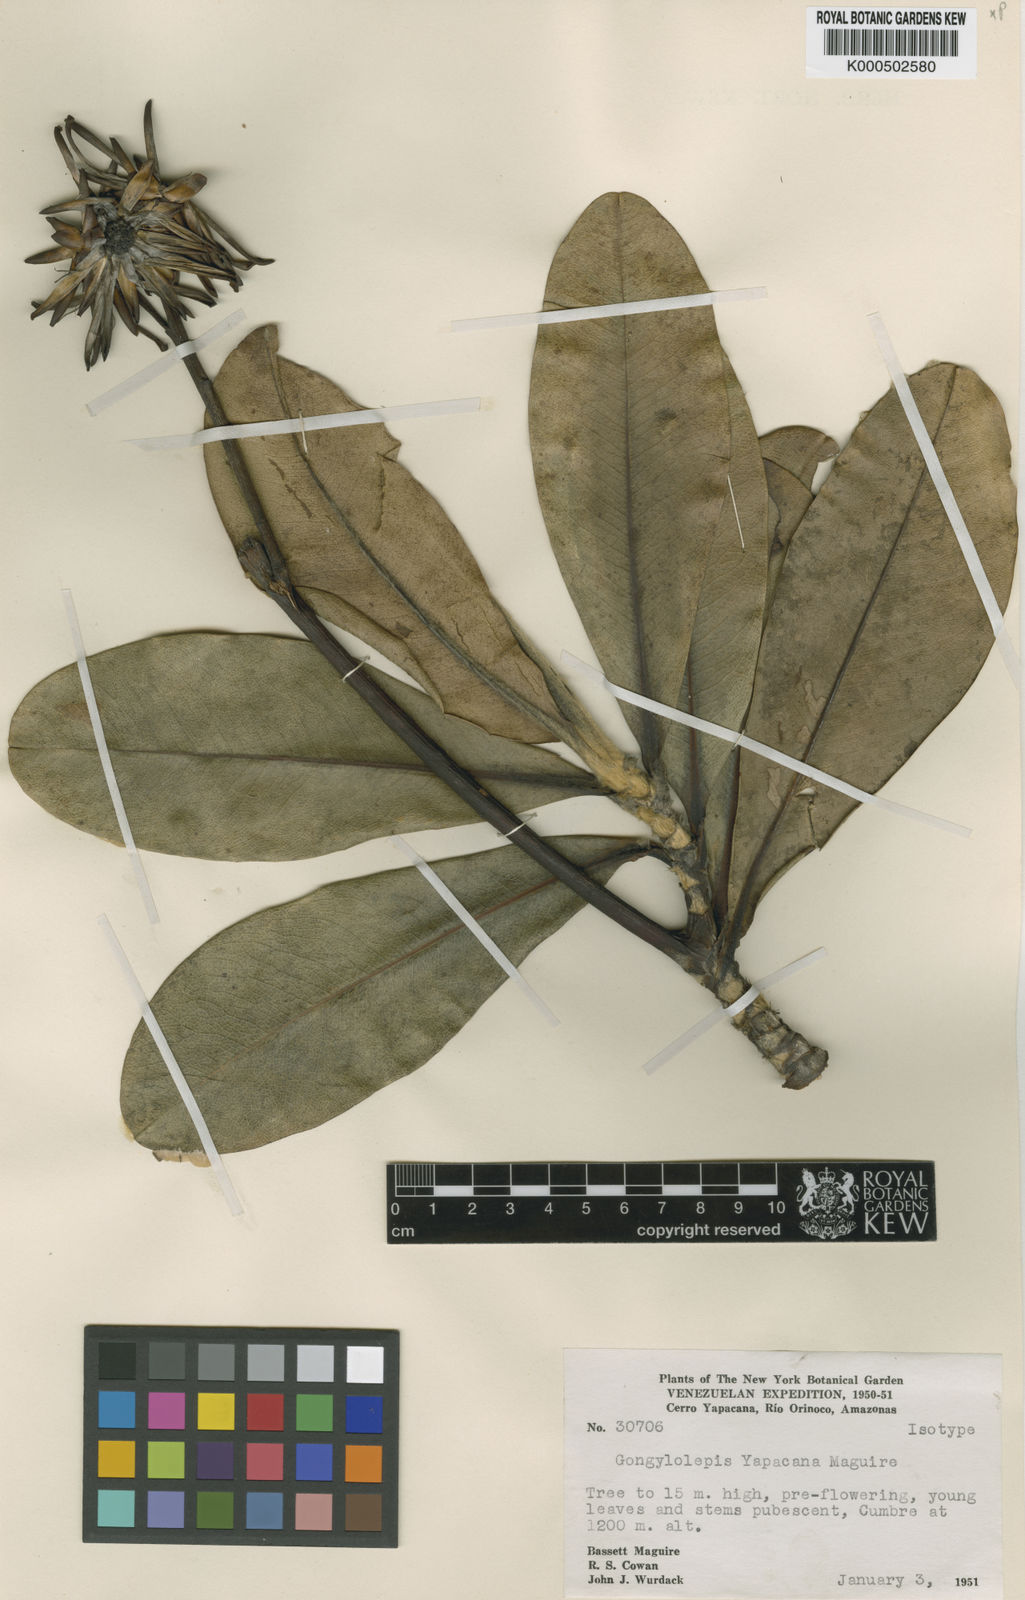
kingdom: Plantae
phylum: Tracheophyta
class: Magnoliopsida
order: Asterales
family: Asteraceae
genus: Gongylolepis
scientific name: Gongylolepis paniculata
